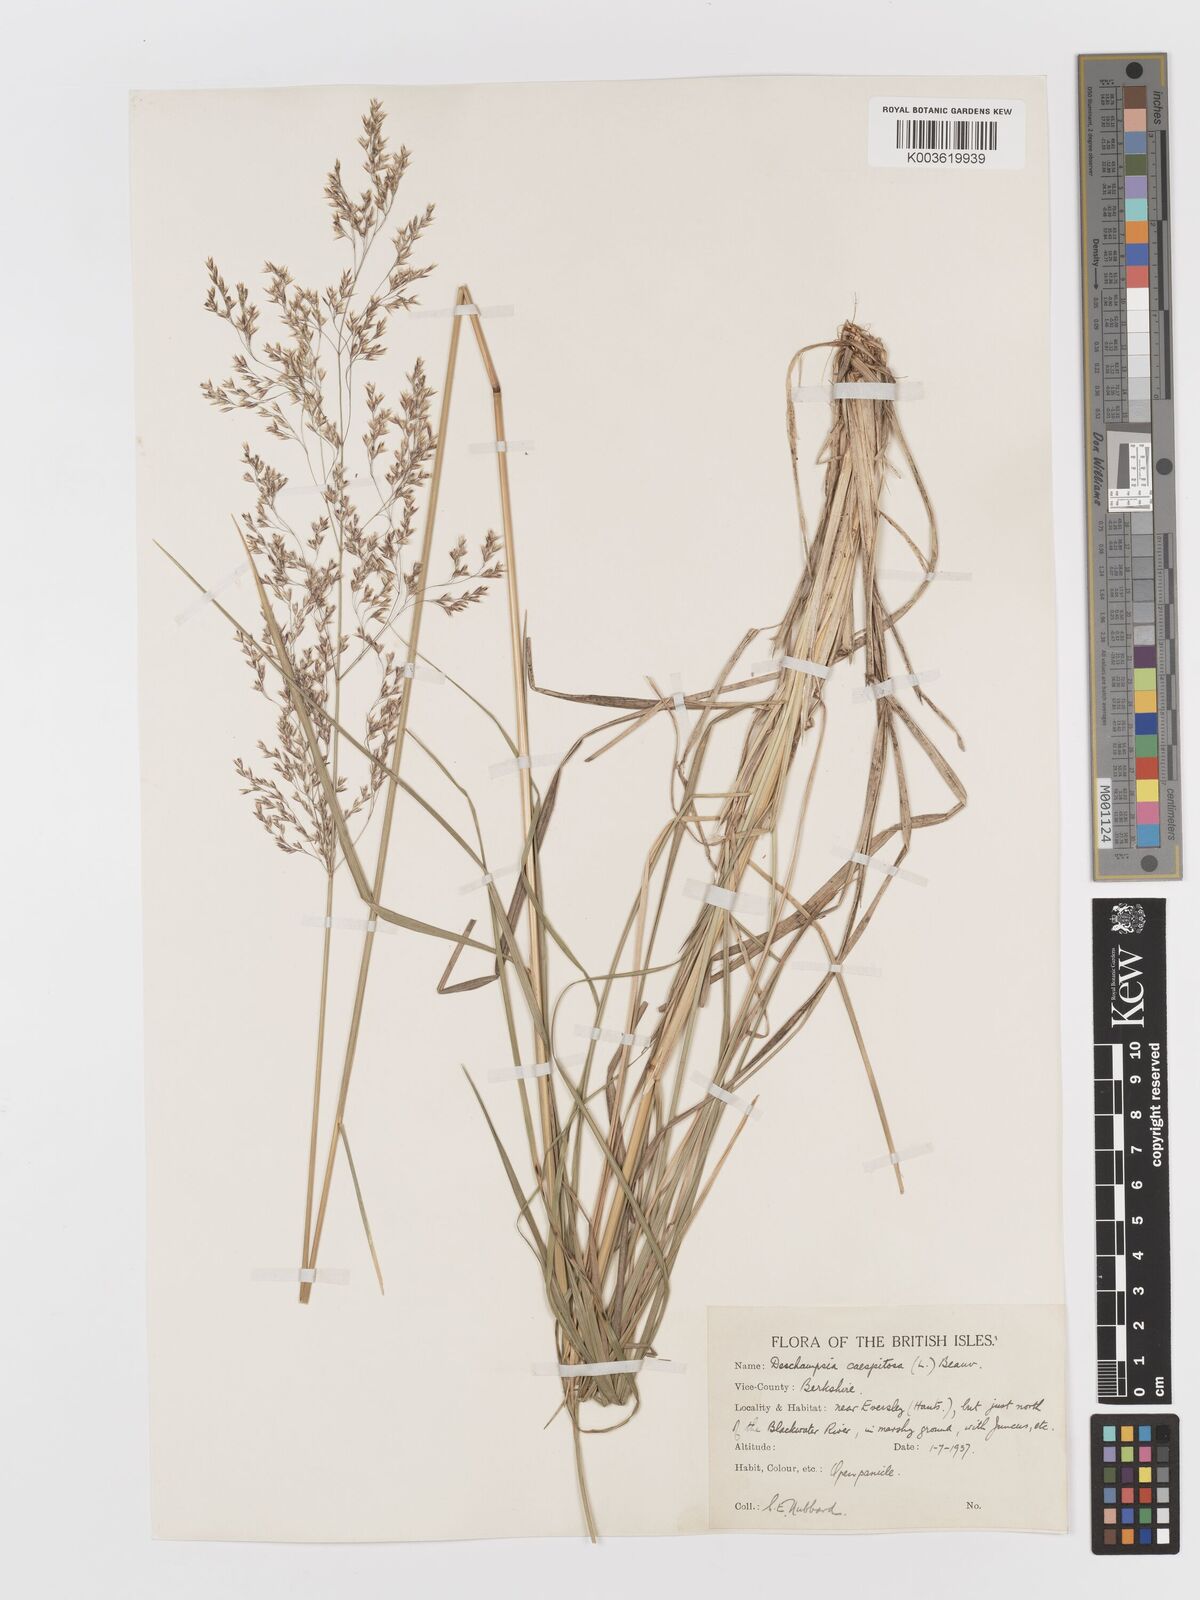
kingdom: Plantae
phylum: Tracheophyta
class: Liliopsida
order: Poales
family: Poaceae
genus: Deschampsia
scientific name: Deschampsia
